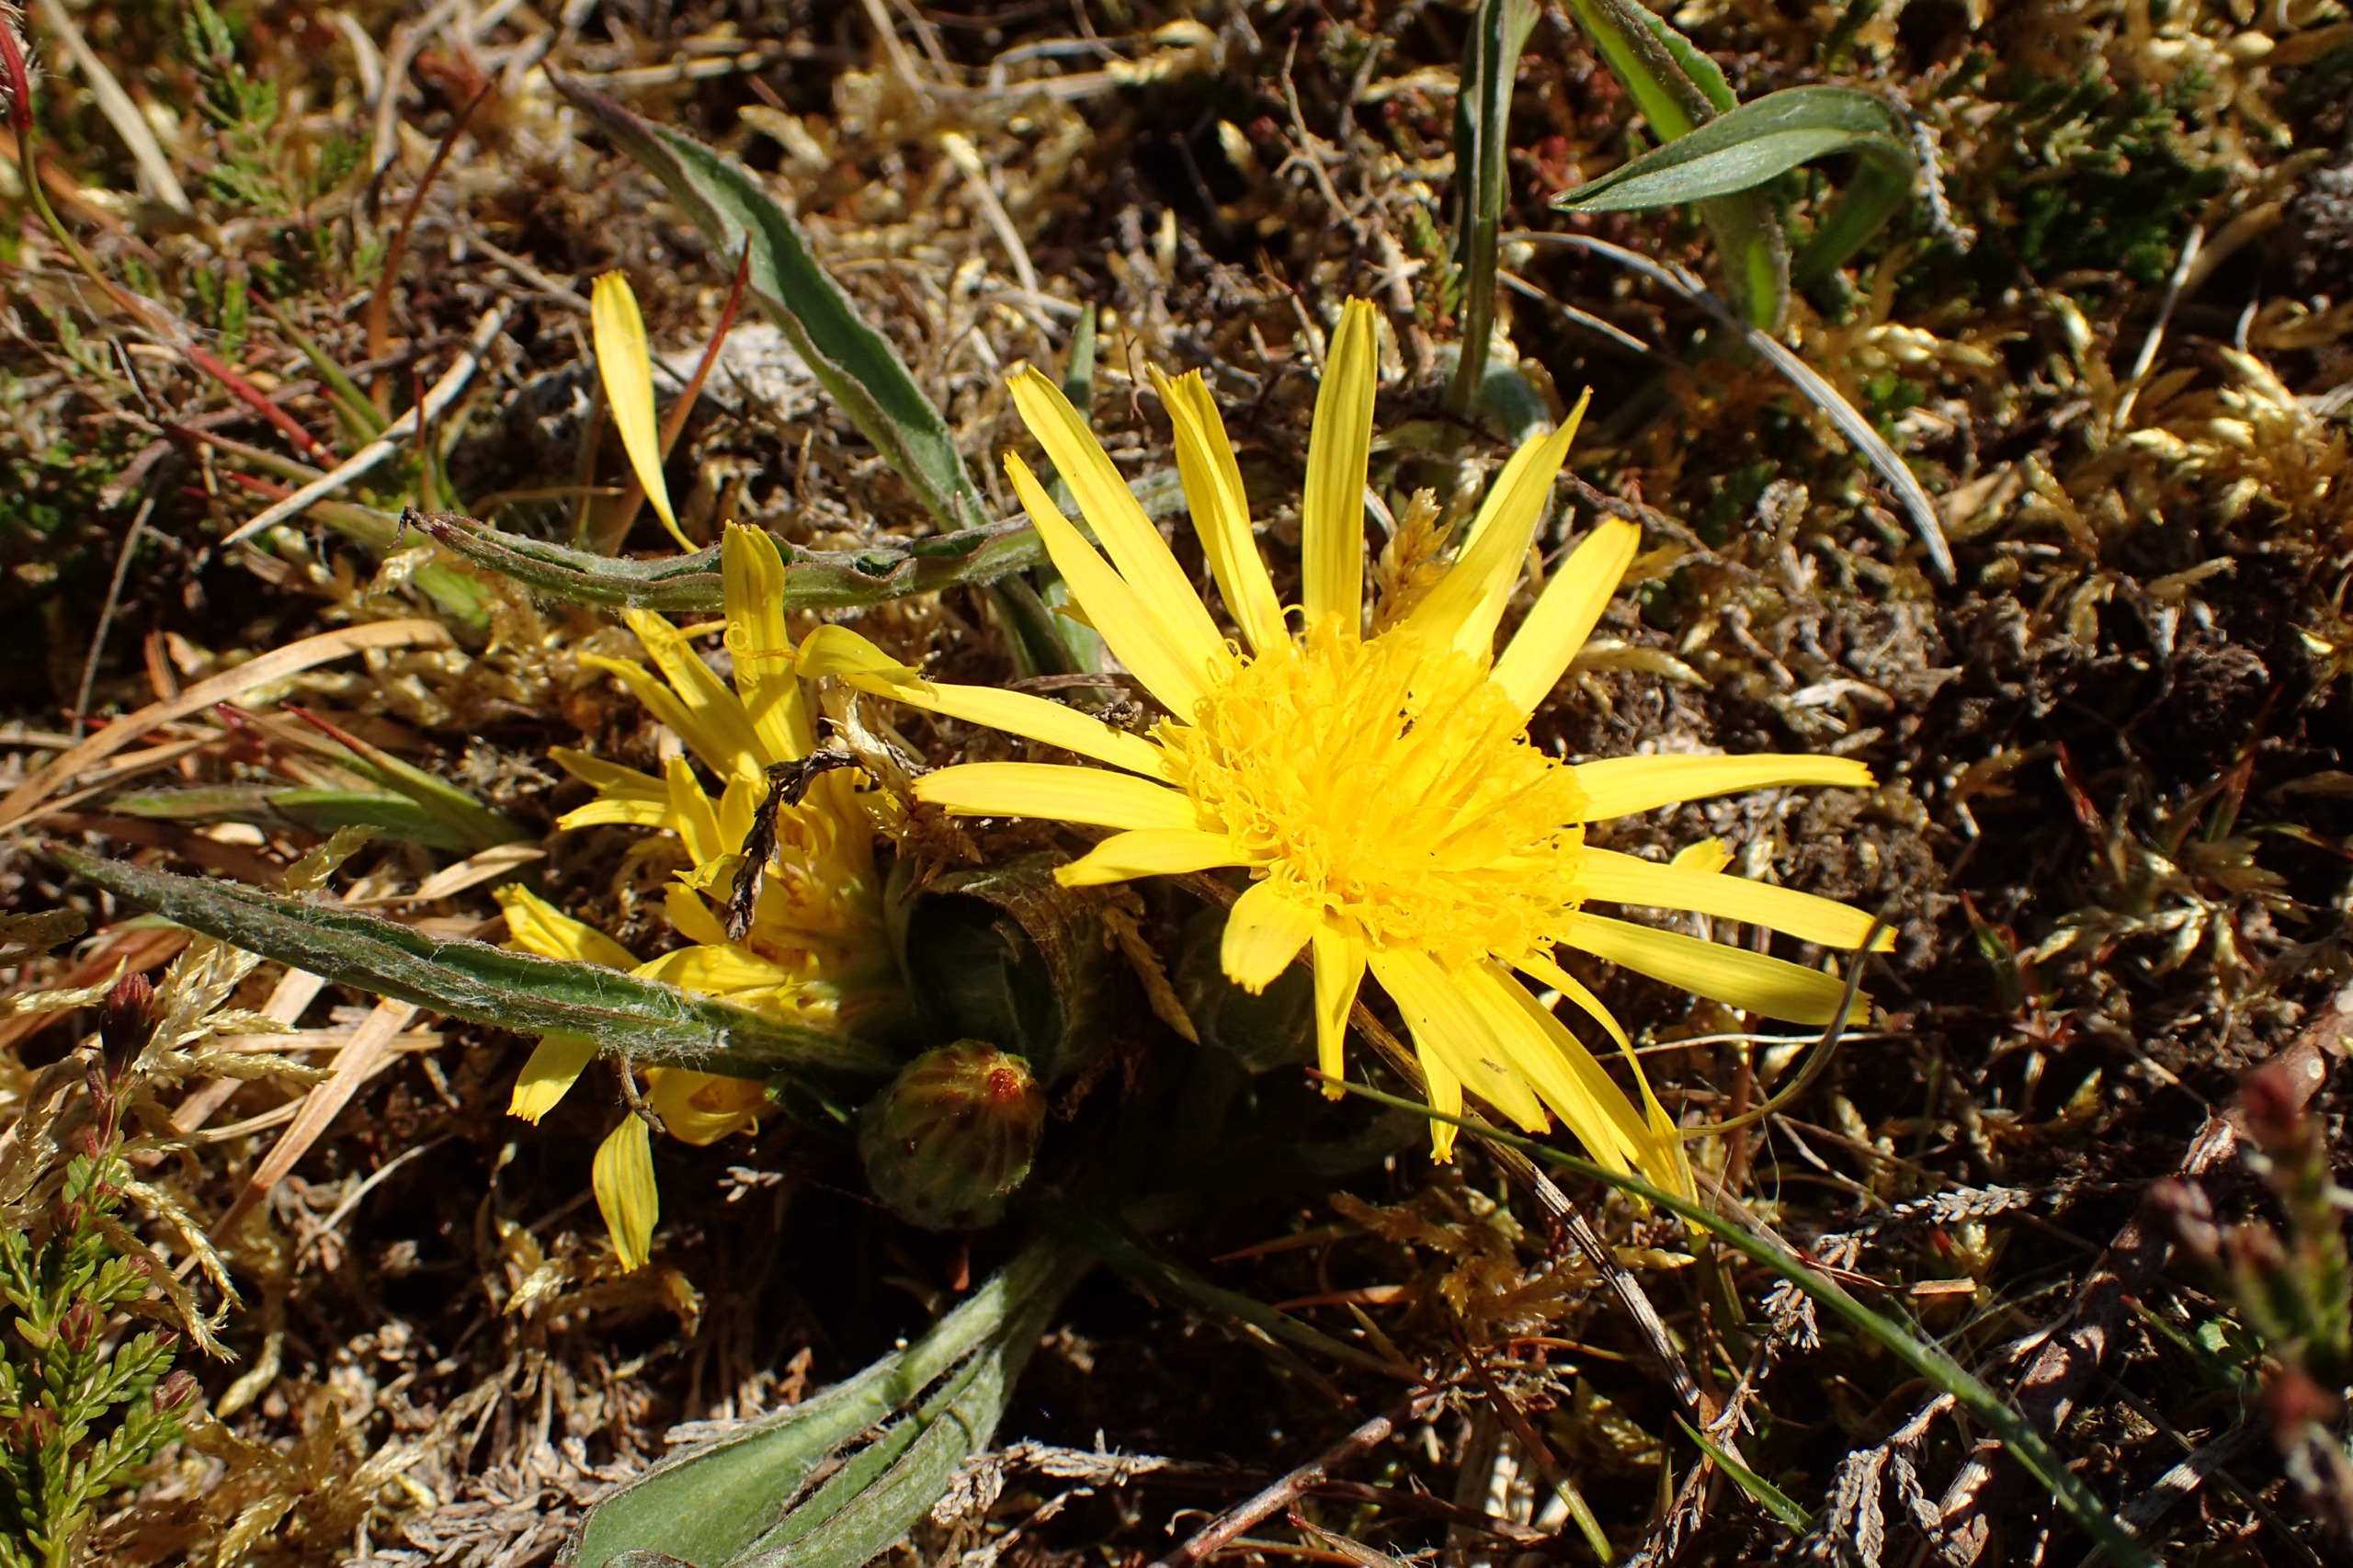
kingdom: Plantae
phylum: Tracheophyta
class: Magnoliopsida
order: Asterales
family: Asteraceae
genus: Scorzonera
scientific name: Scorzonera humilis
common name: Lav skorsoner
